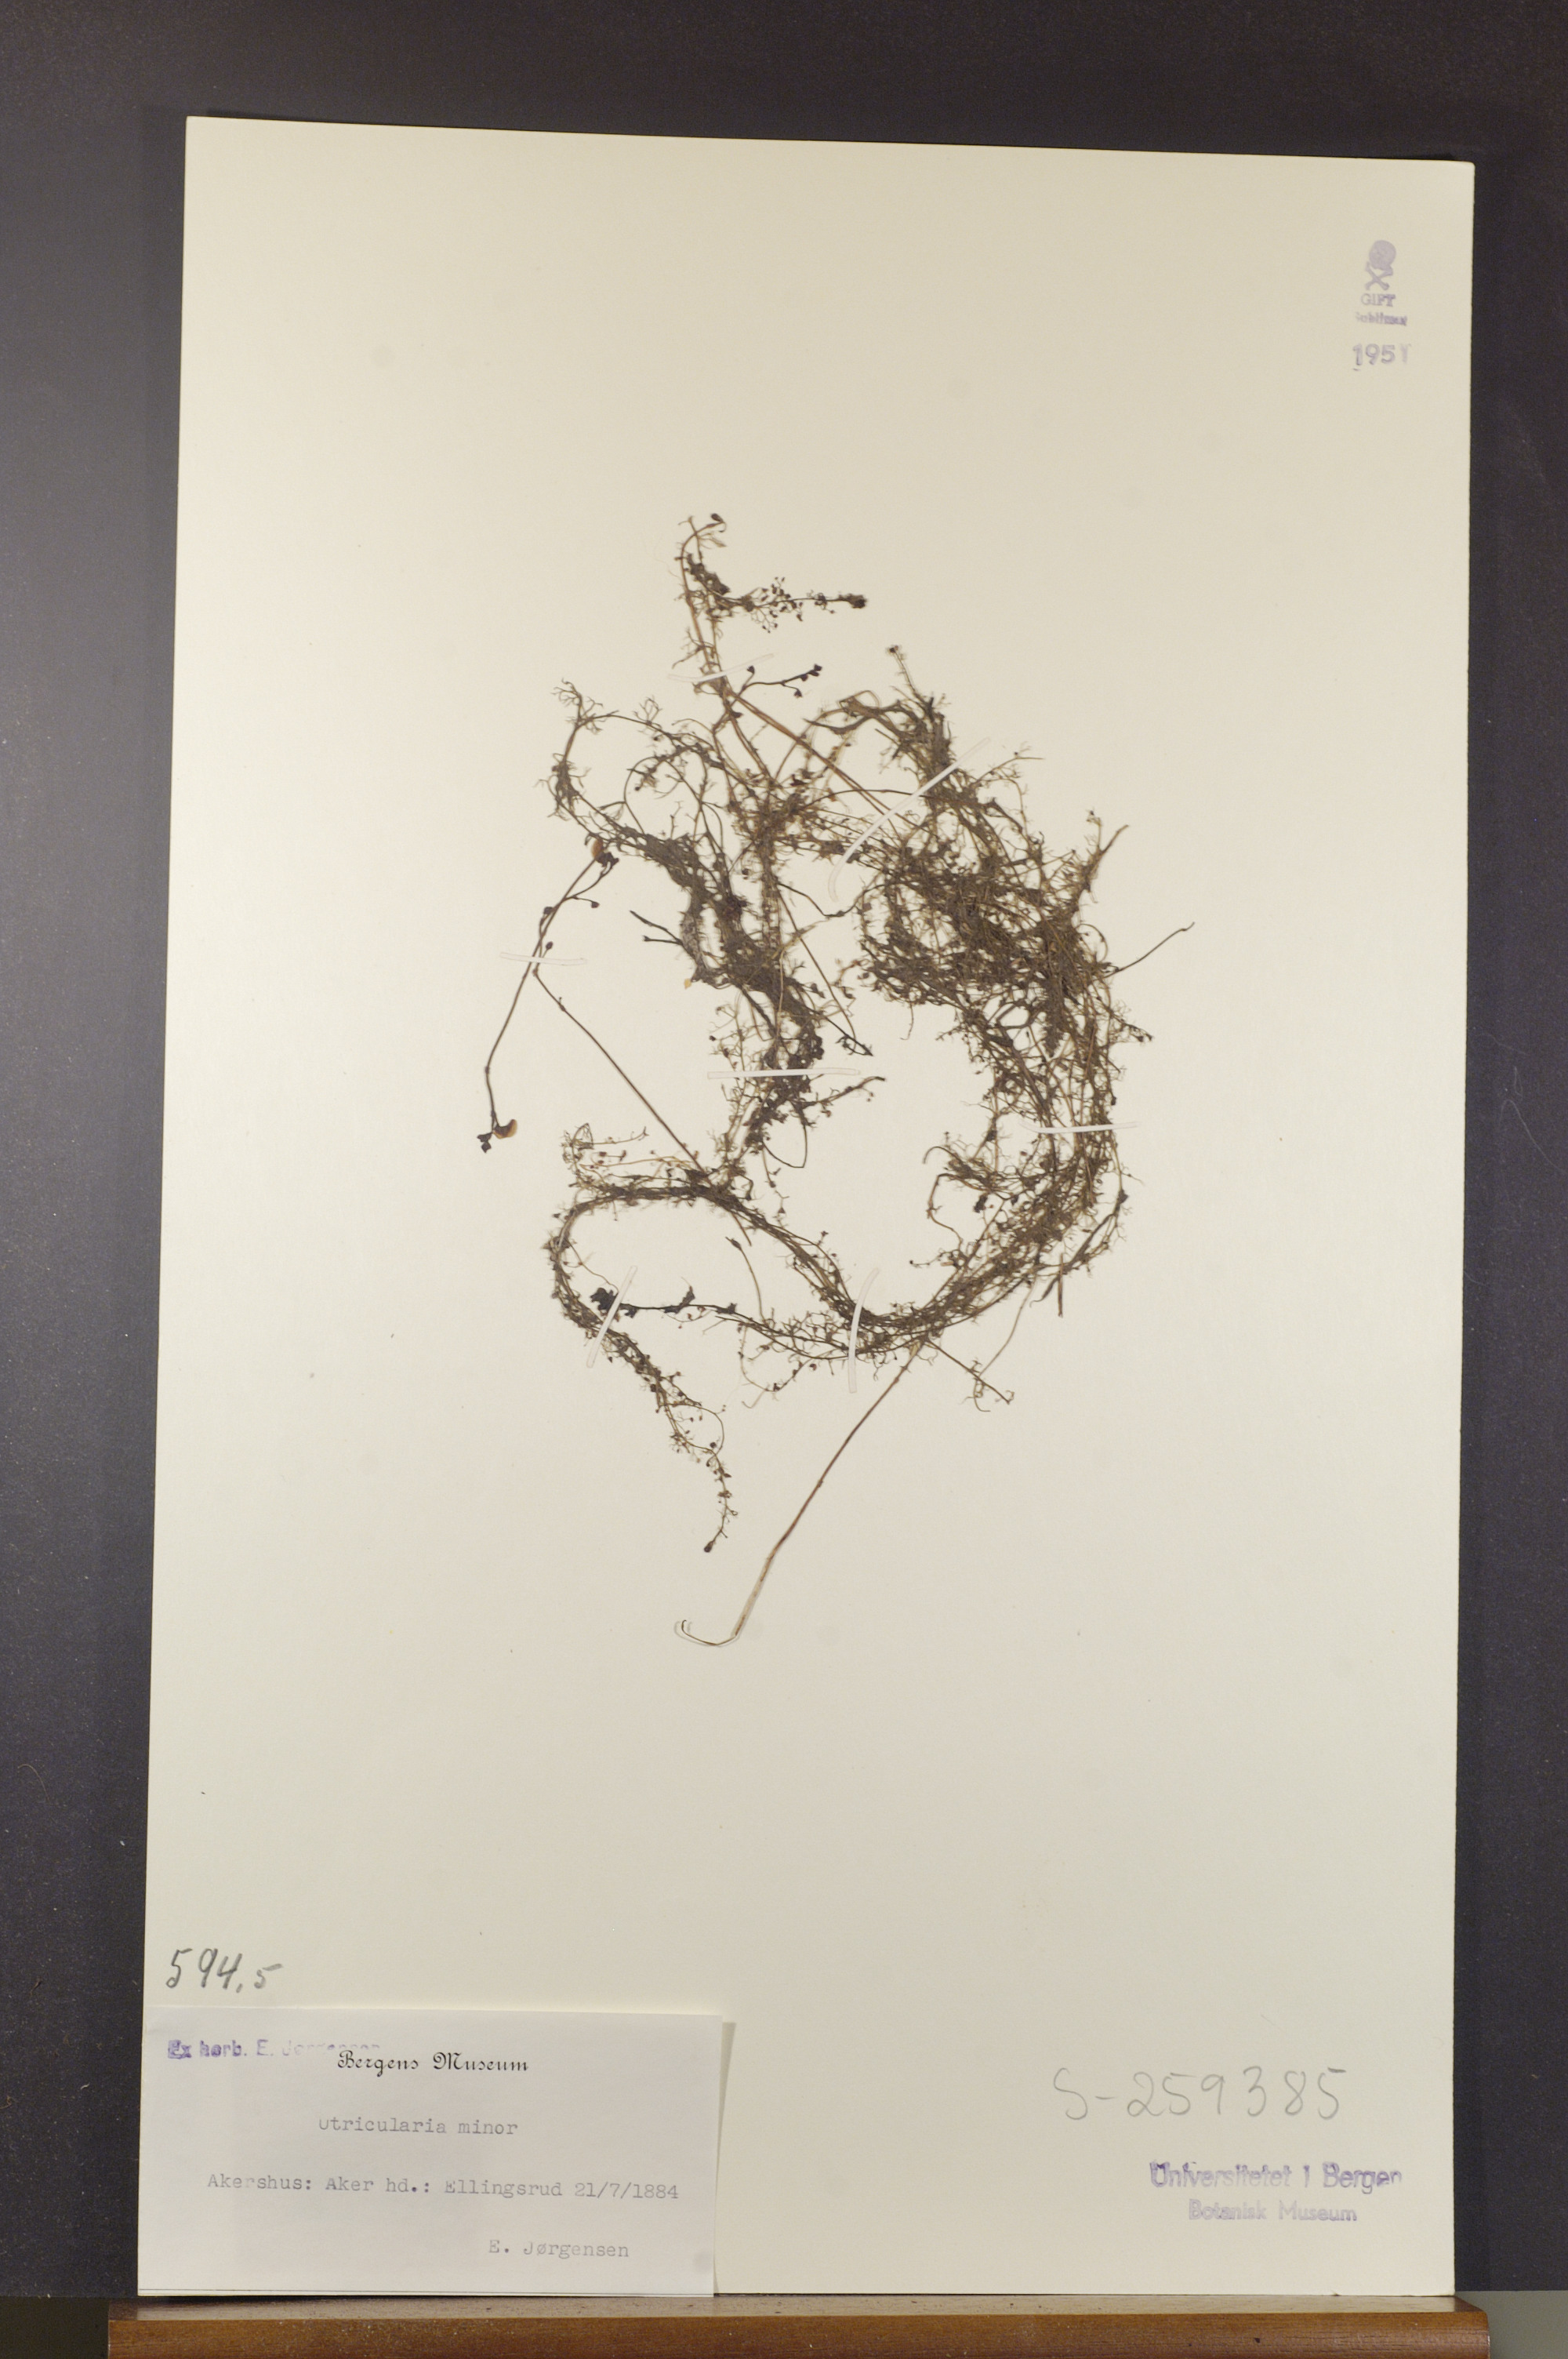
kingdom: Plantae
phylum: Tracheophyta
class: Magnoliopsida
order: Lamiales
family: Lentibulariaceae
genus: Utricularia
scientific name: Utricularia minor
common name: Lesser bladderwort
